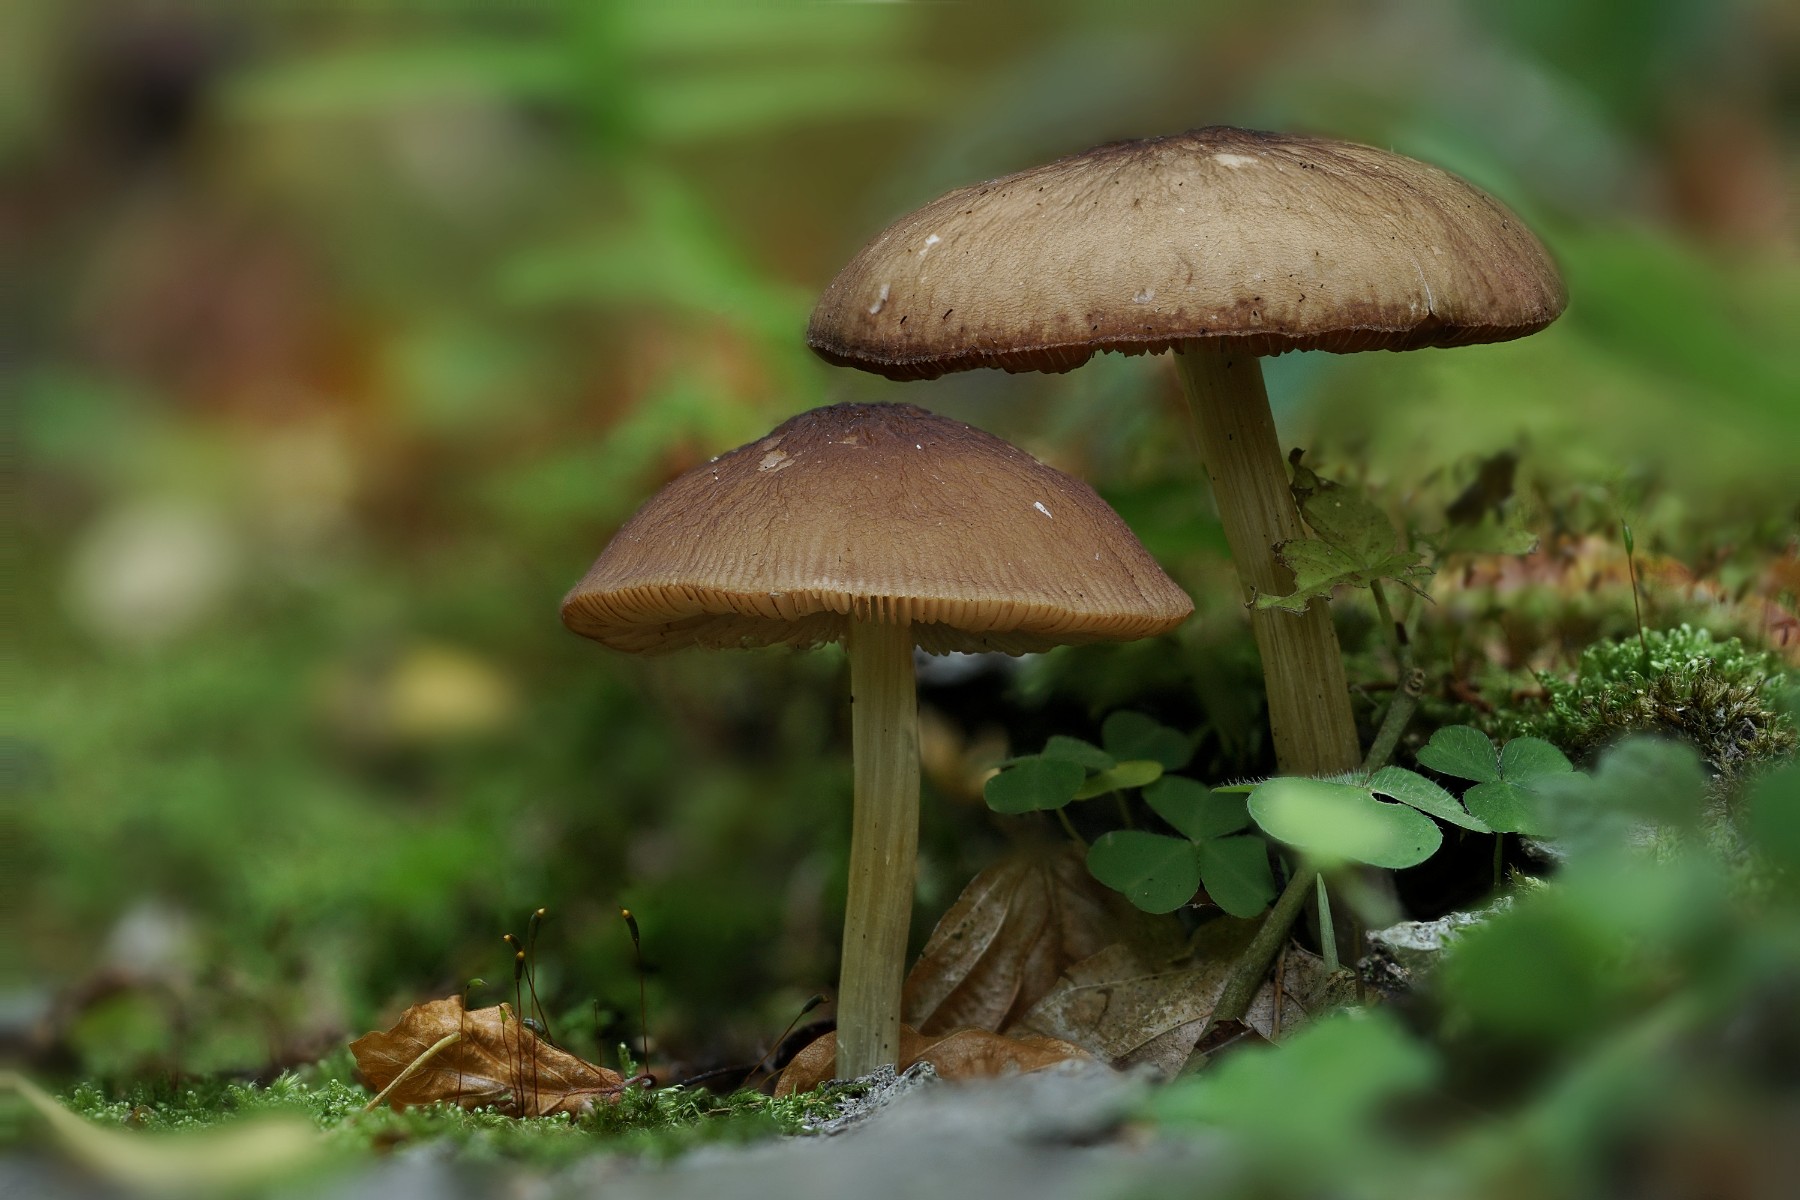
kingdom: Fungi
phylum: Basidiomycota
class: Agaricomycetes
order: Agaricales
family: Pluteaceae
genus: Pluteus
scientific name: Pluteus phlebophorus
